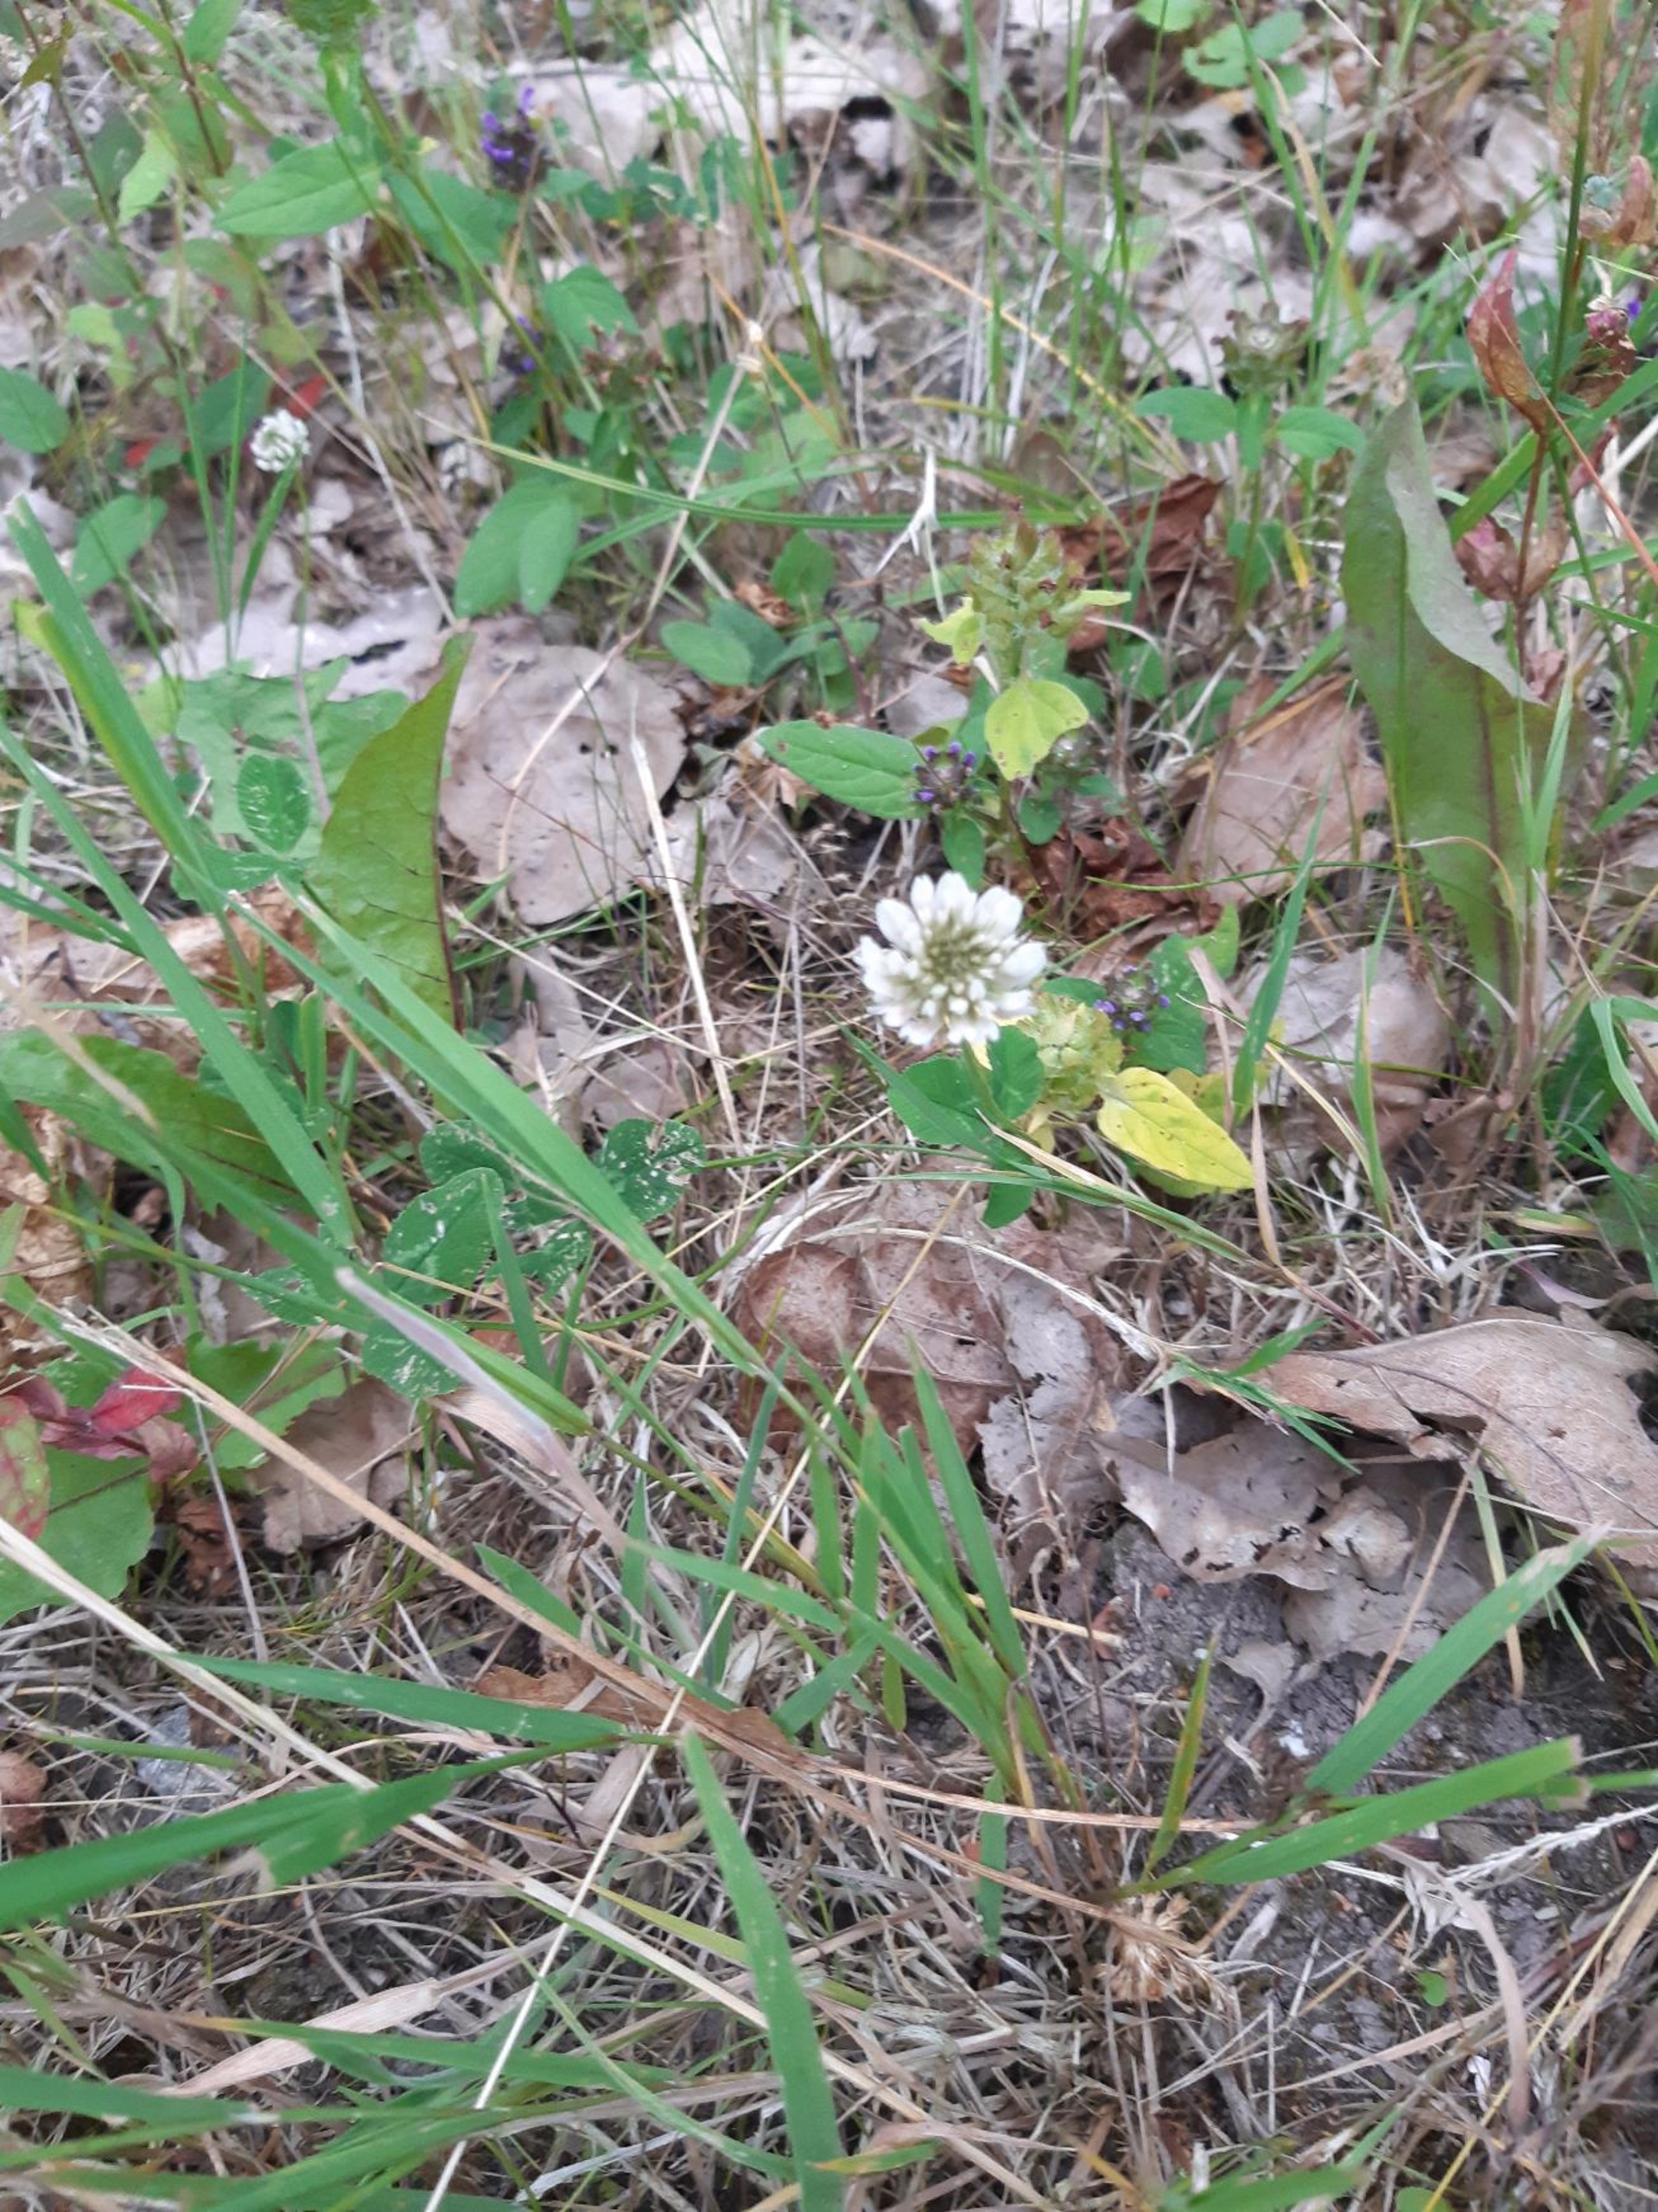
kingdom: Plantae
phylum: Tracheophyta
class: Magnoliopsida
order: Fabales
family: Fabaceae
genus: Trifolium
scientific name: Trifolium repens
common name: Hvid-kløver
